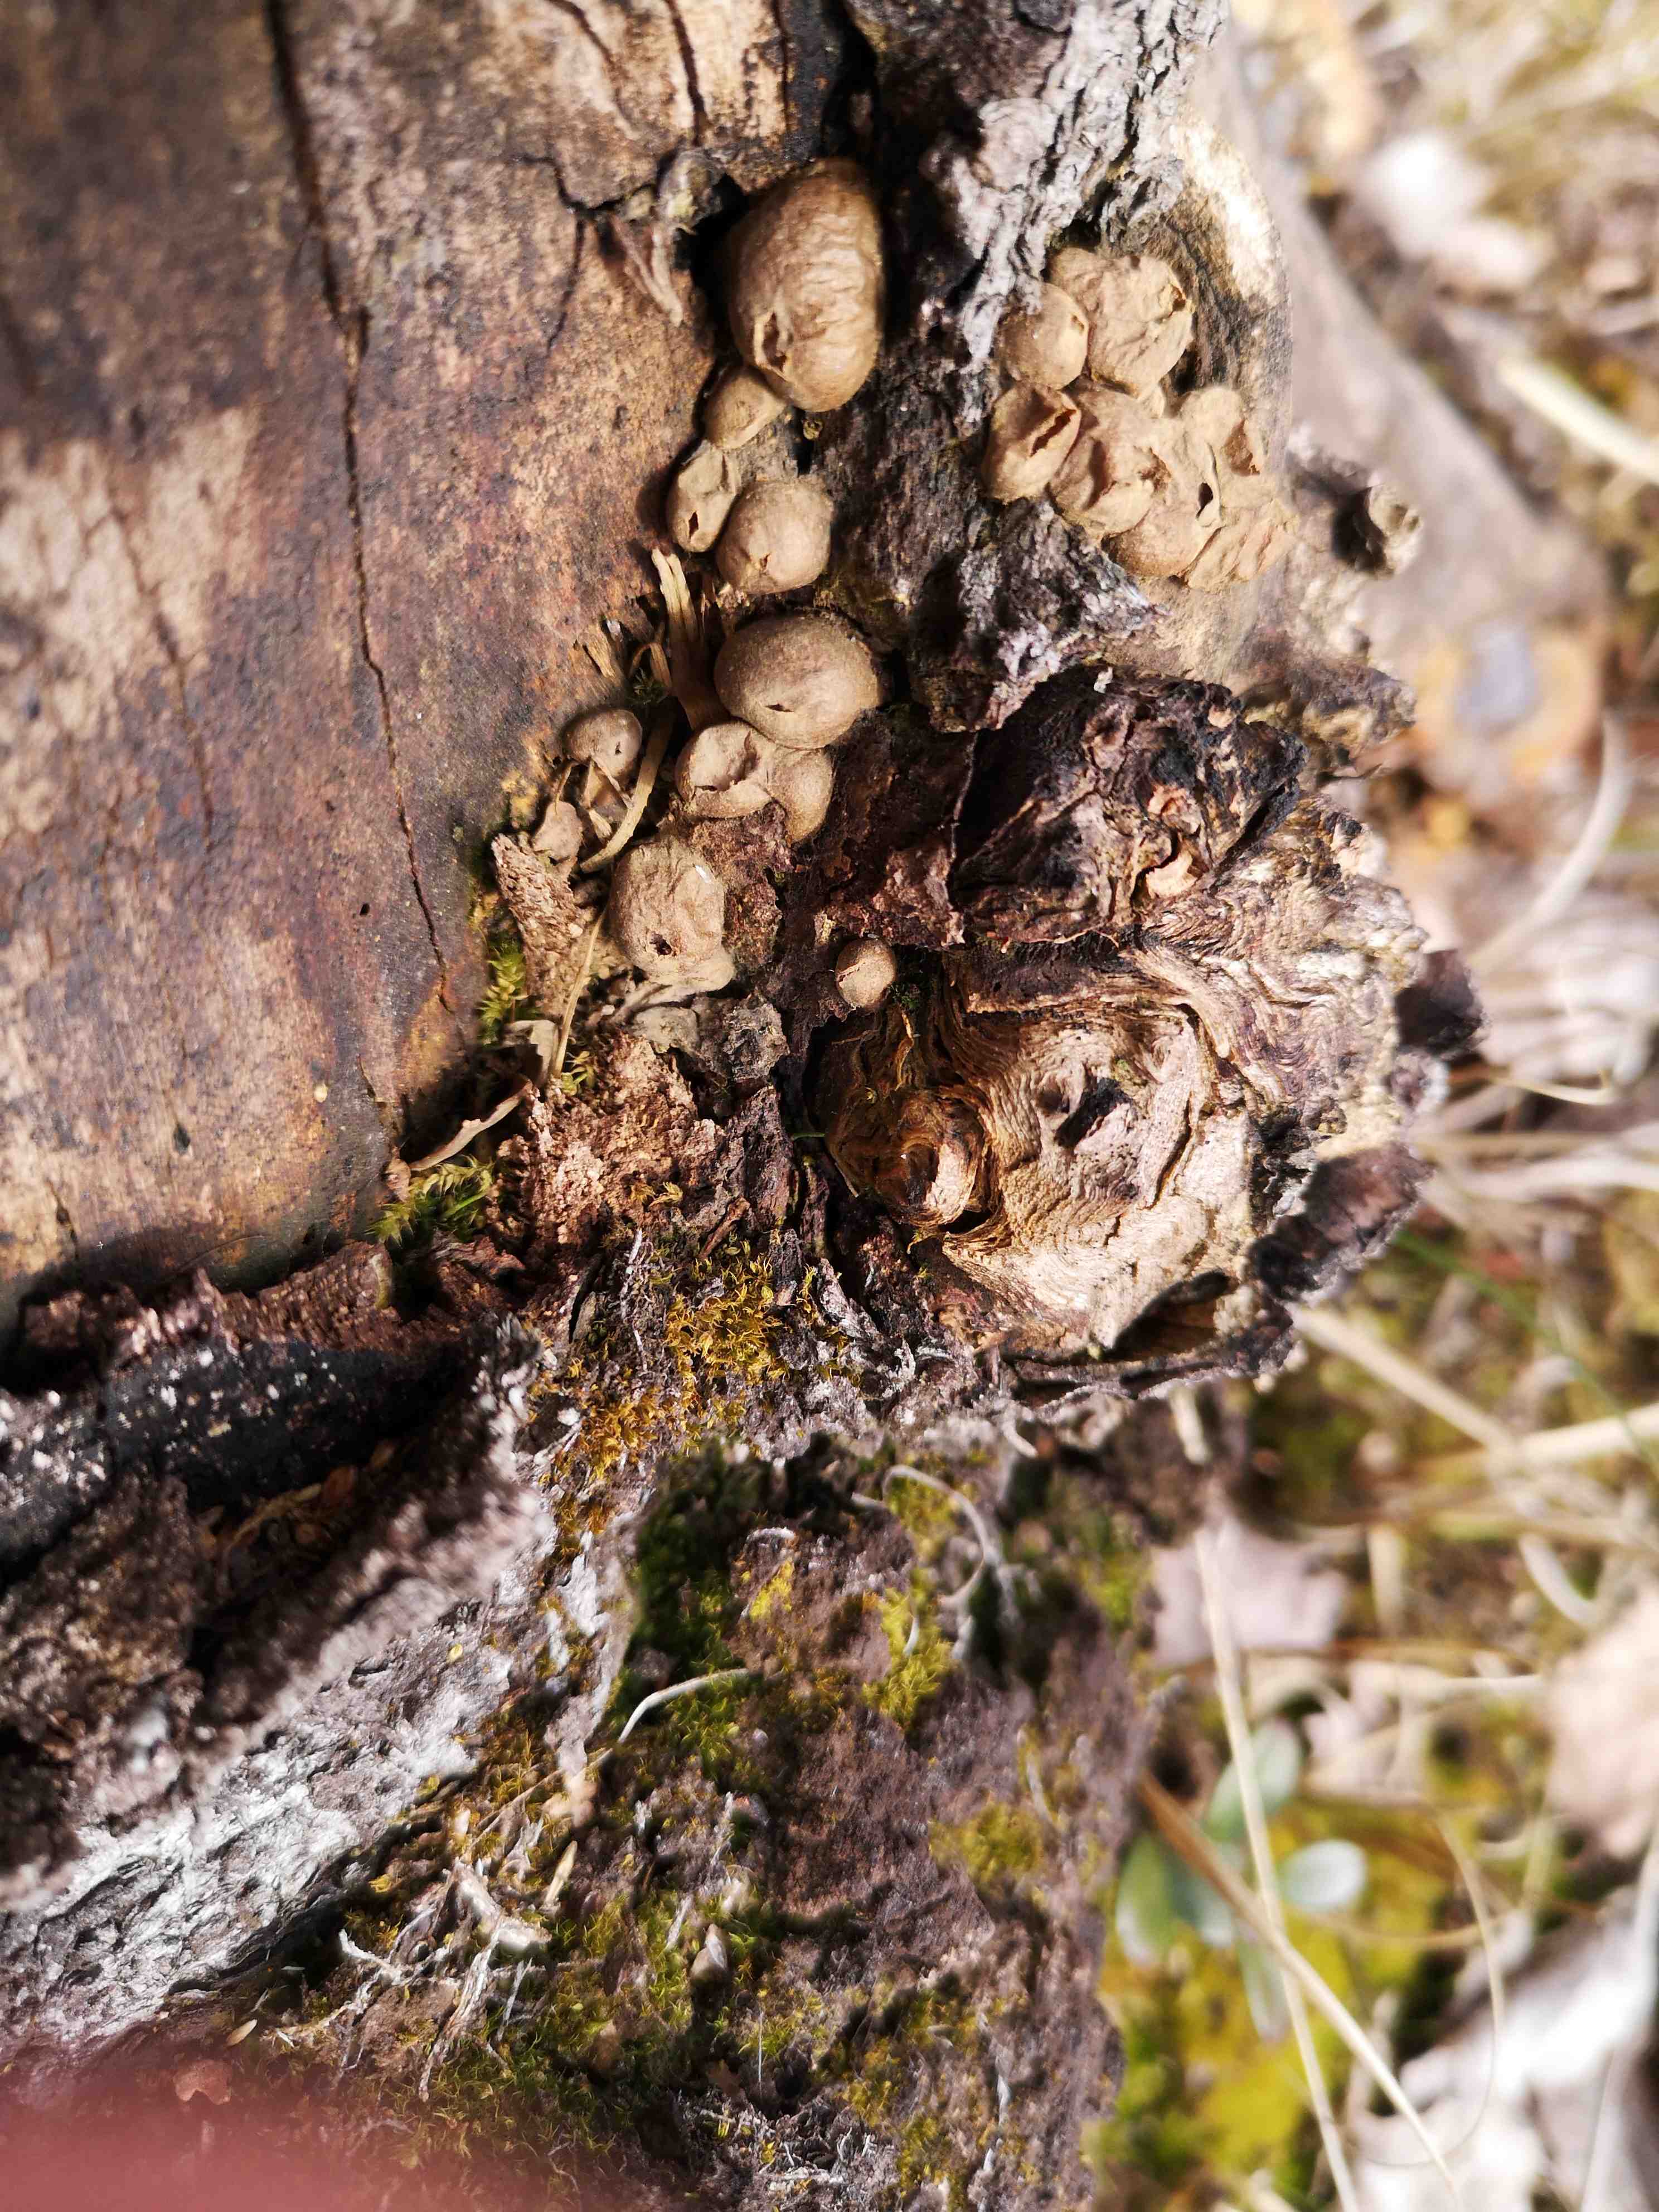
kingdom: Protozoa
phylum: Mycetozoa
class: Myxomycetes
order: Cribrariales
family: Tubiferaceae
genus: Lycogala
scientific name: Lycogala epidendrum
